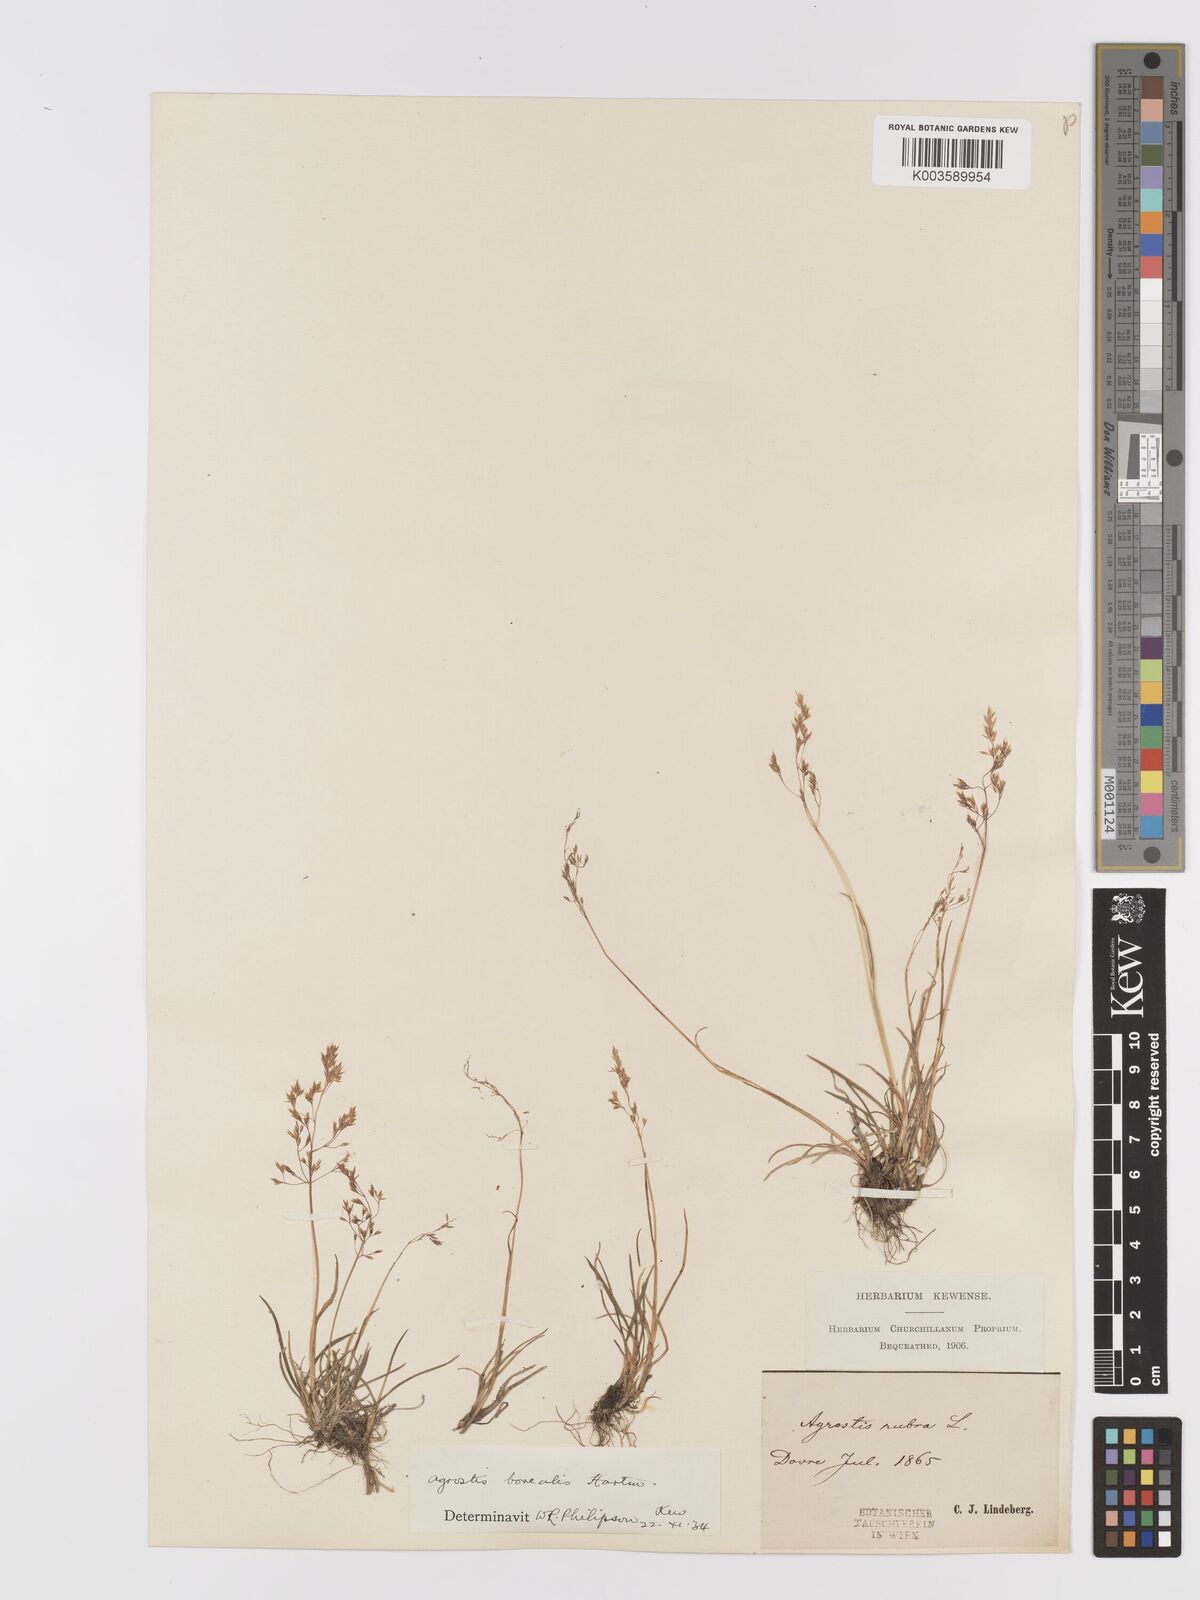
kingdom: Plantae
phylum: Tracheophyta
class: Liliopsida
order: Poales
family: Poaceae
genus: Agrostis
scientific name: Agrostis mertensii
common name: Northern bent
